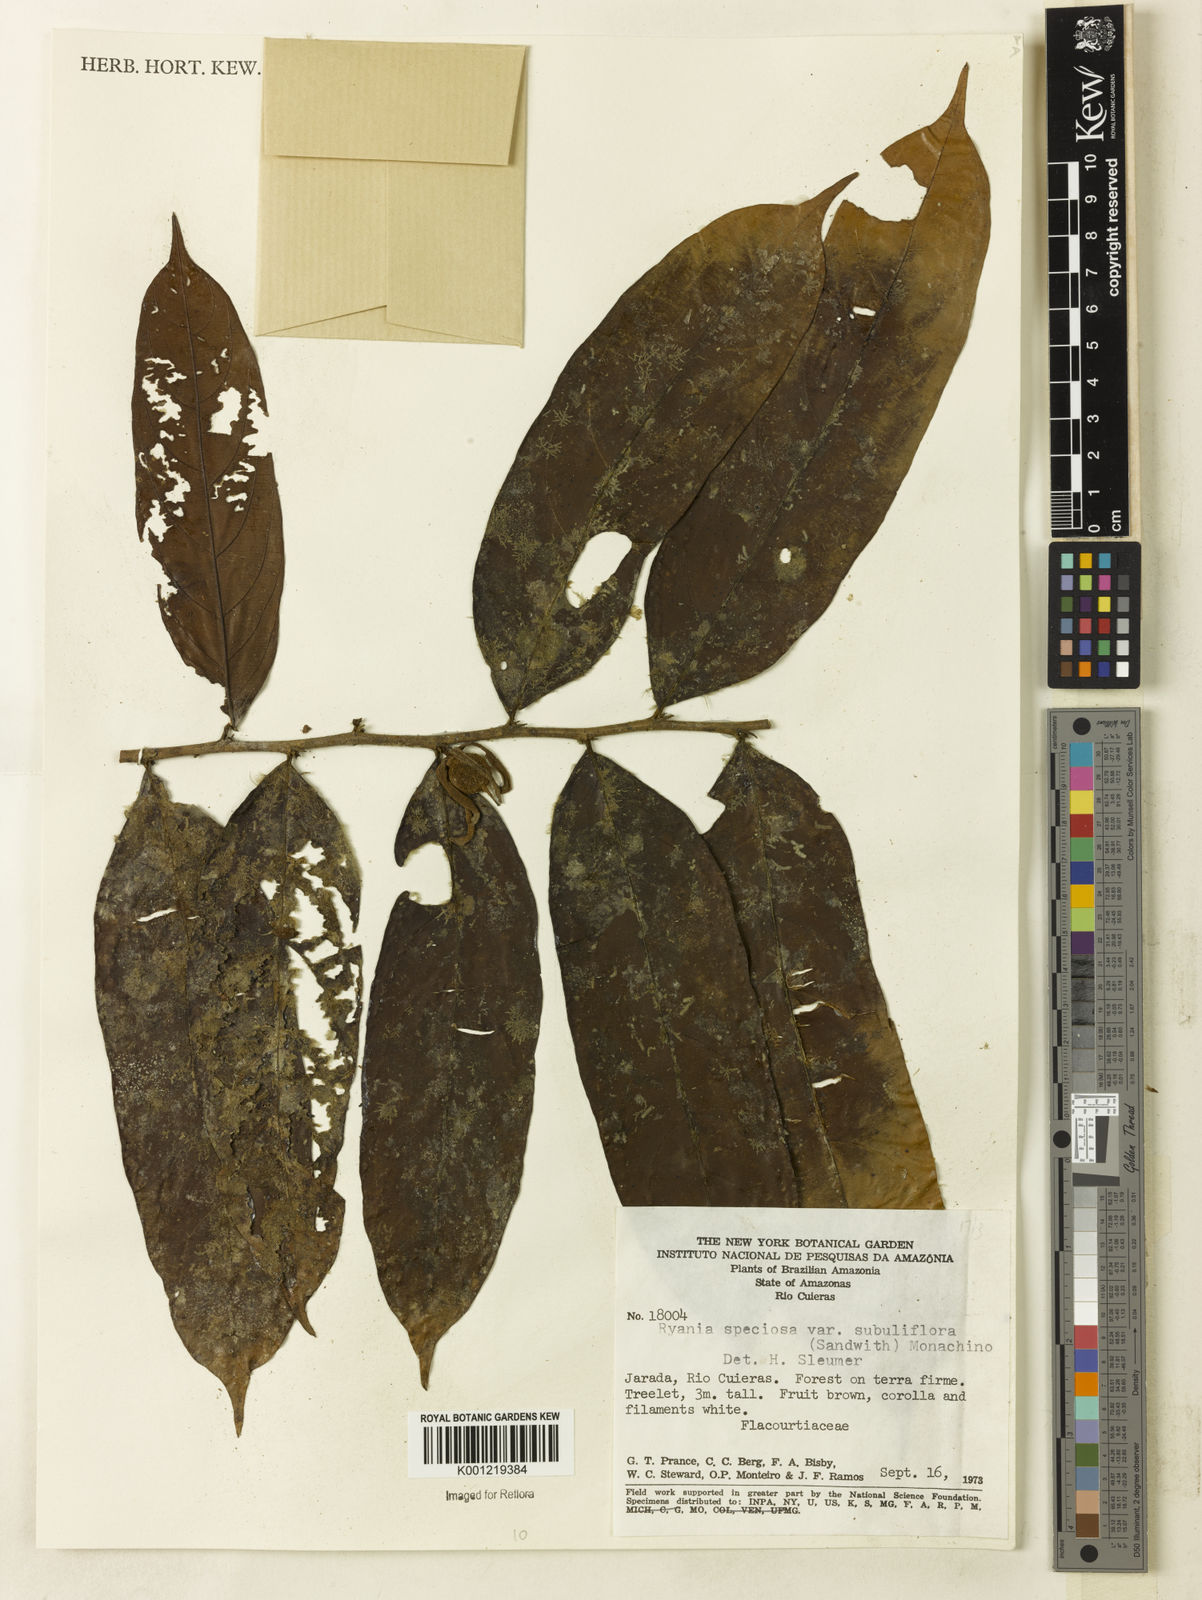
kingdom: Plantae
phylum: Tracheophyta
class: Magnoliopsida
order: Malpighiales
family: Salicaceae
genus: Ryania
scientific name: Ryania speciosa
